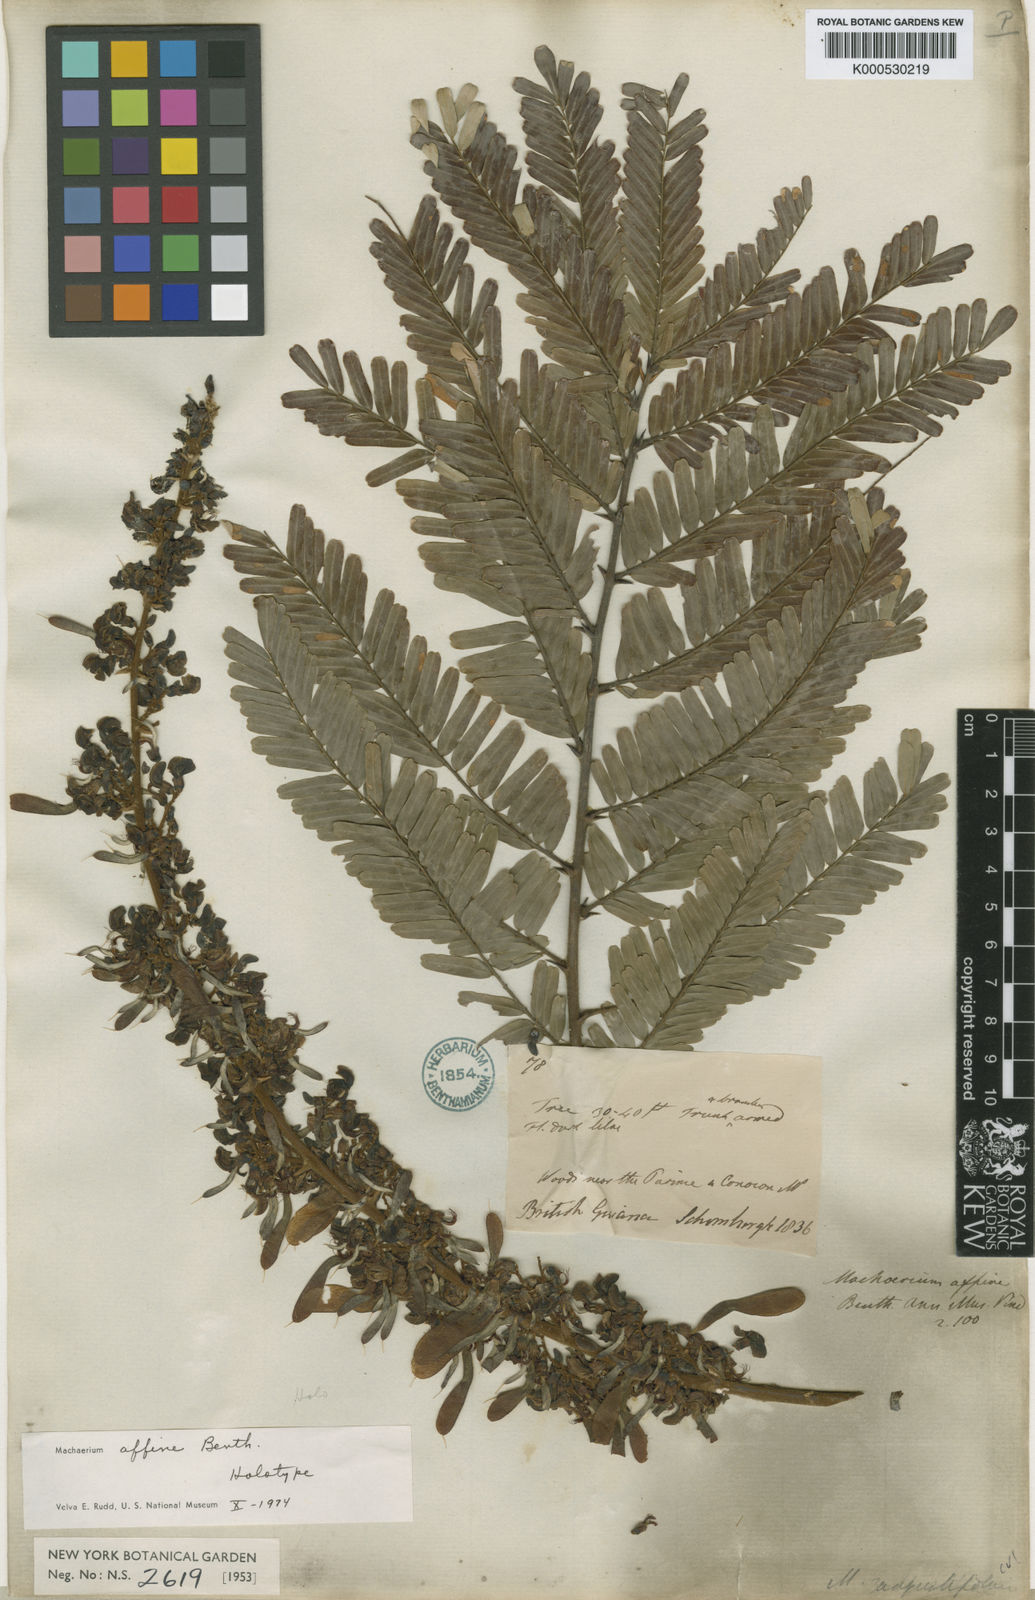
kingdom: Plantae
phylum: Tracheophyta
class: Magnoliopsida
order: Fabales
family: Fabaceae
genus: Machaerium
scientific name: Machaerium hirtum
